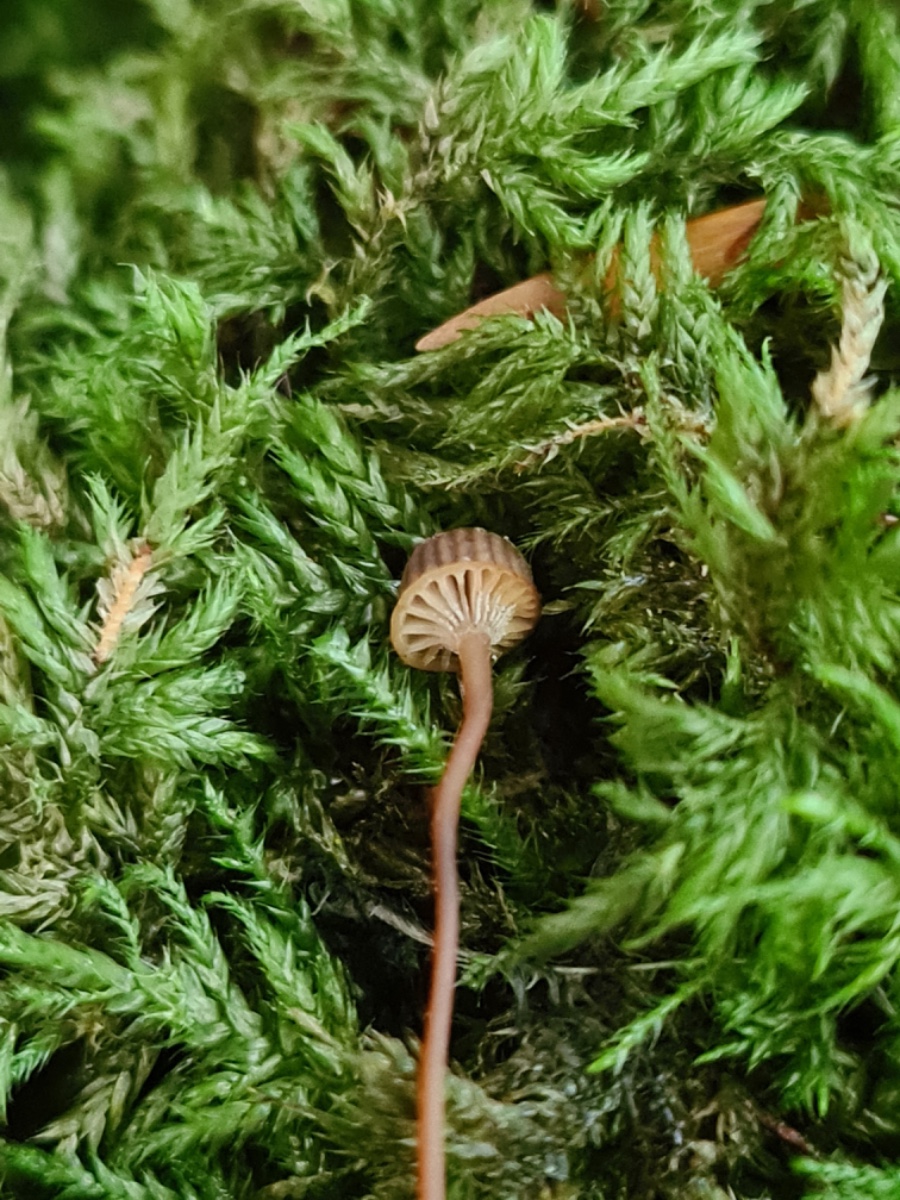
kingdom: Fungi
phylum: Basidiomycota
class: Agaricomycetes
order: Agaricales
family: Mycenaceae
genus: Mycena
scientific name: Mycena picta
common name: kantet huesvamp
